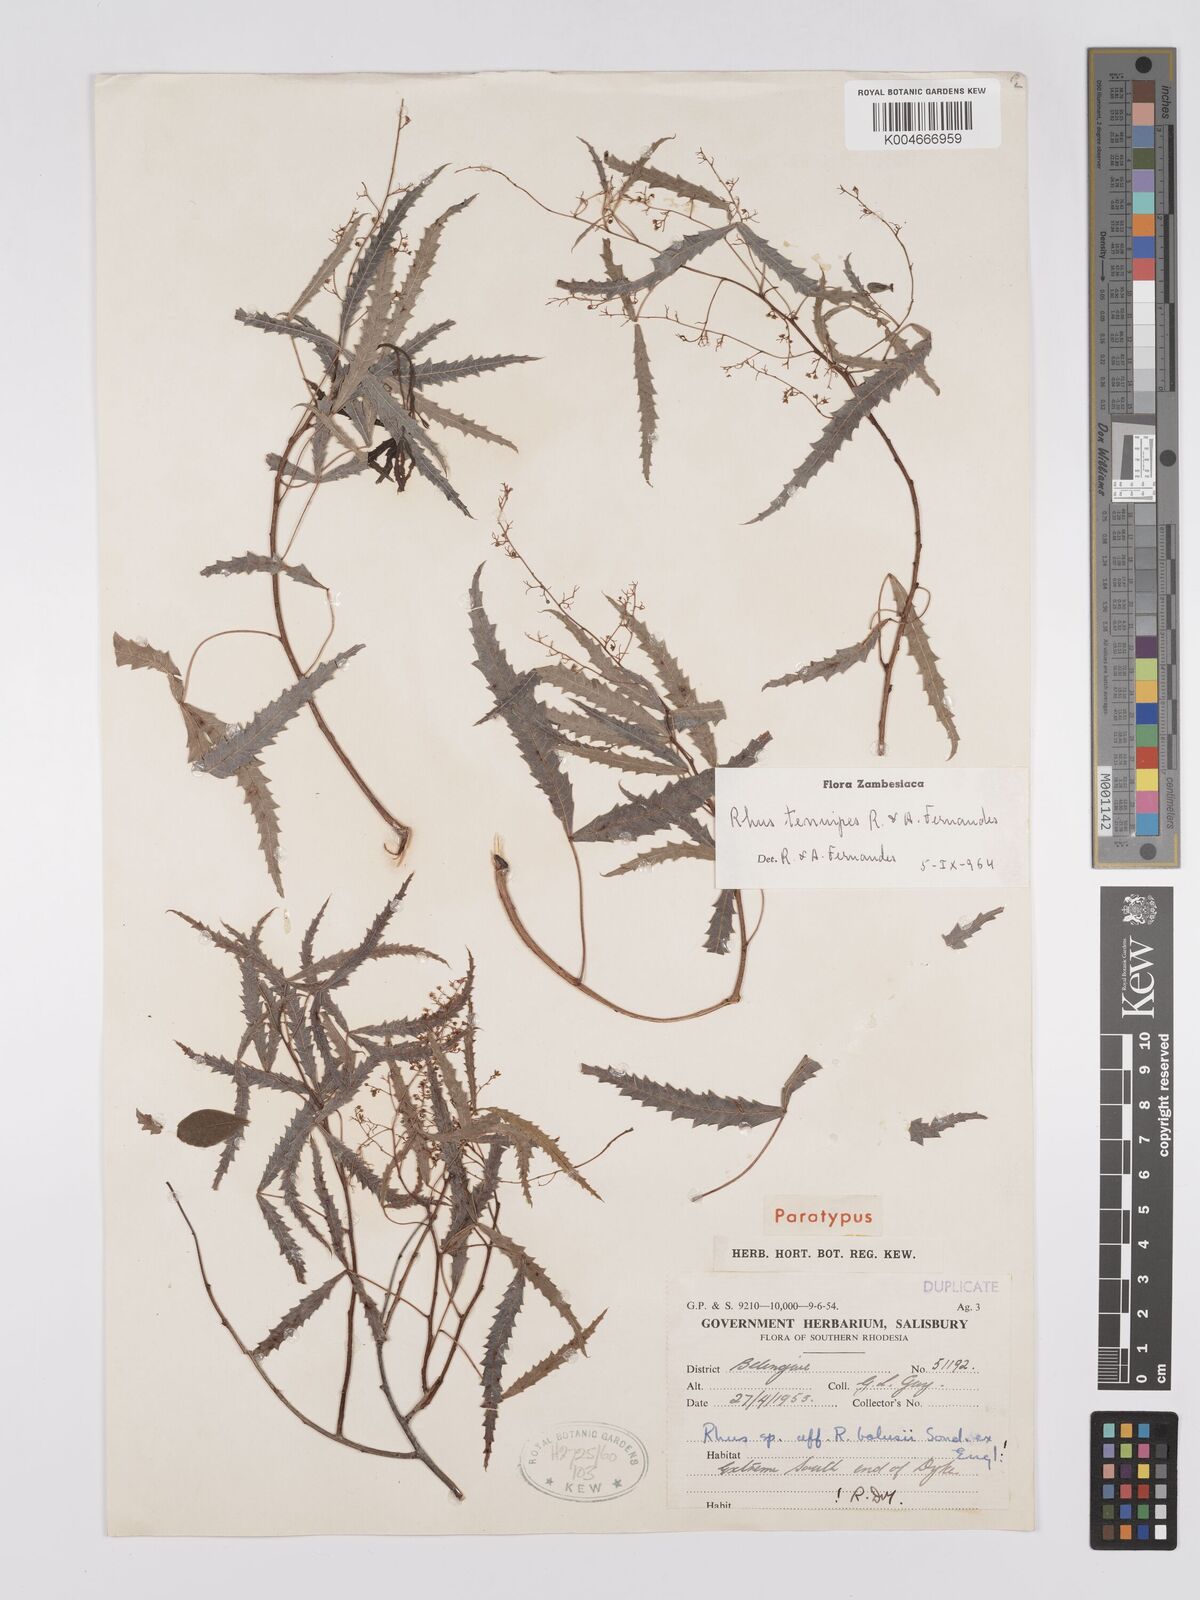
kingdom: Plantae
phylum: Tracheophyta
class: Magnoliopsida
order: Sapindales
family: Anacardiaceae
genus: Searsia
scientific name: Searsia tenuipes
